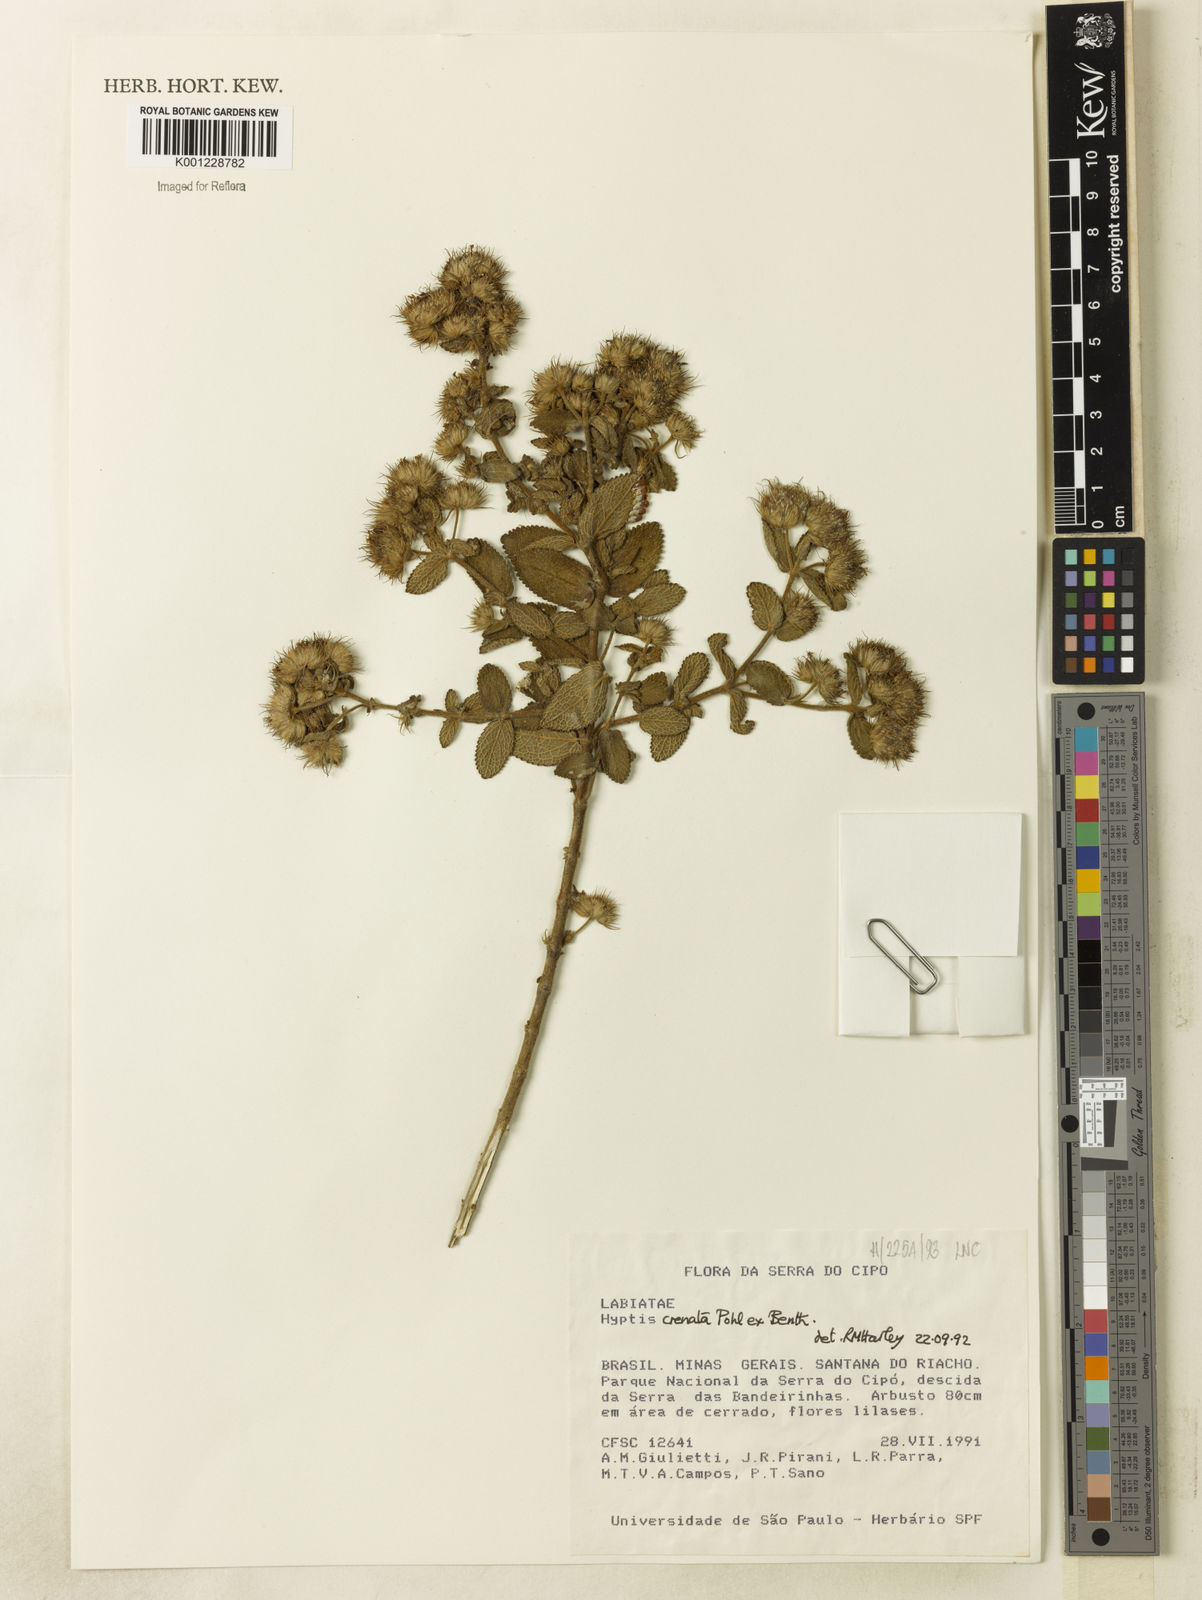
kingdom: Plantae
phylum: Tracheophyta
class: Magnoliopsida
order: Lamiales
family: Lamiaceae
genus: Hyptis
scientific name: Hyptis crenata
